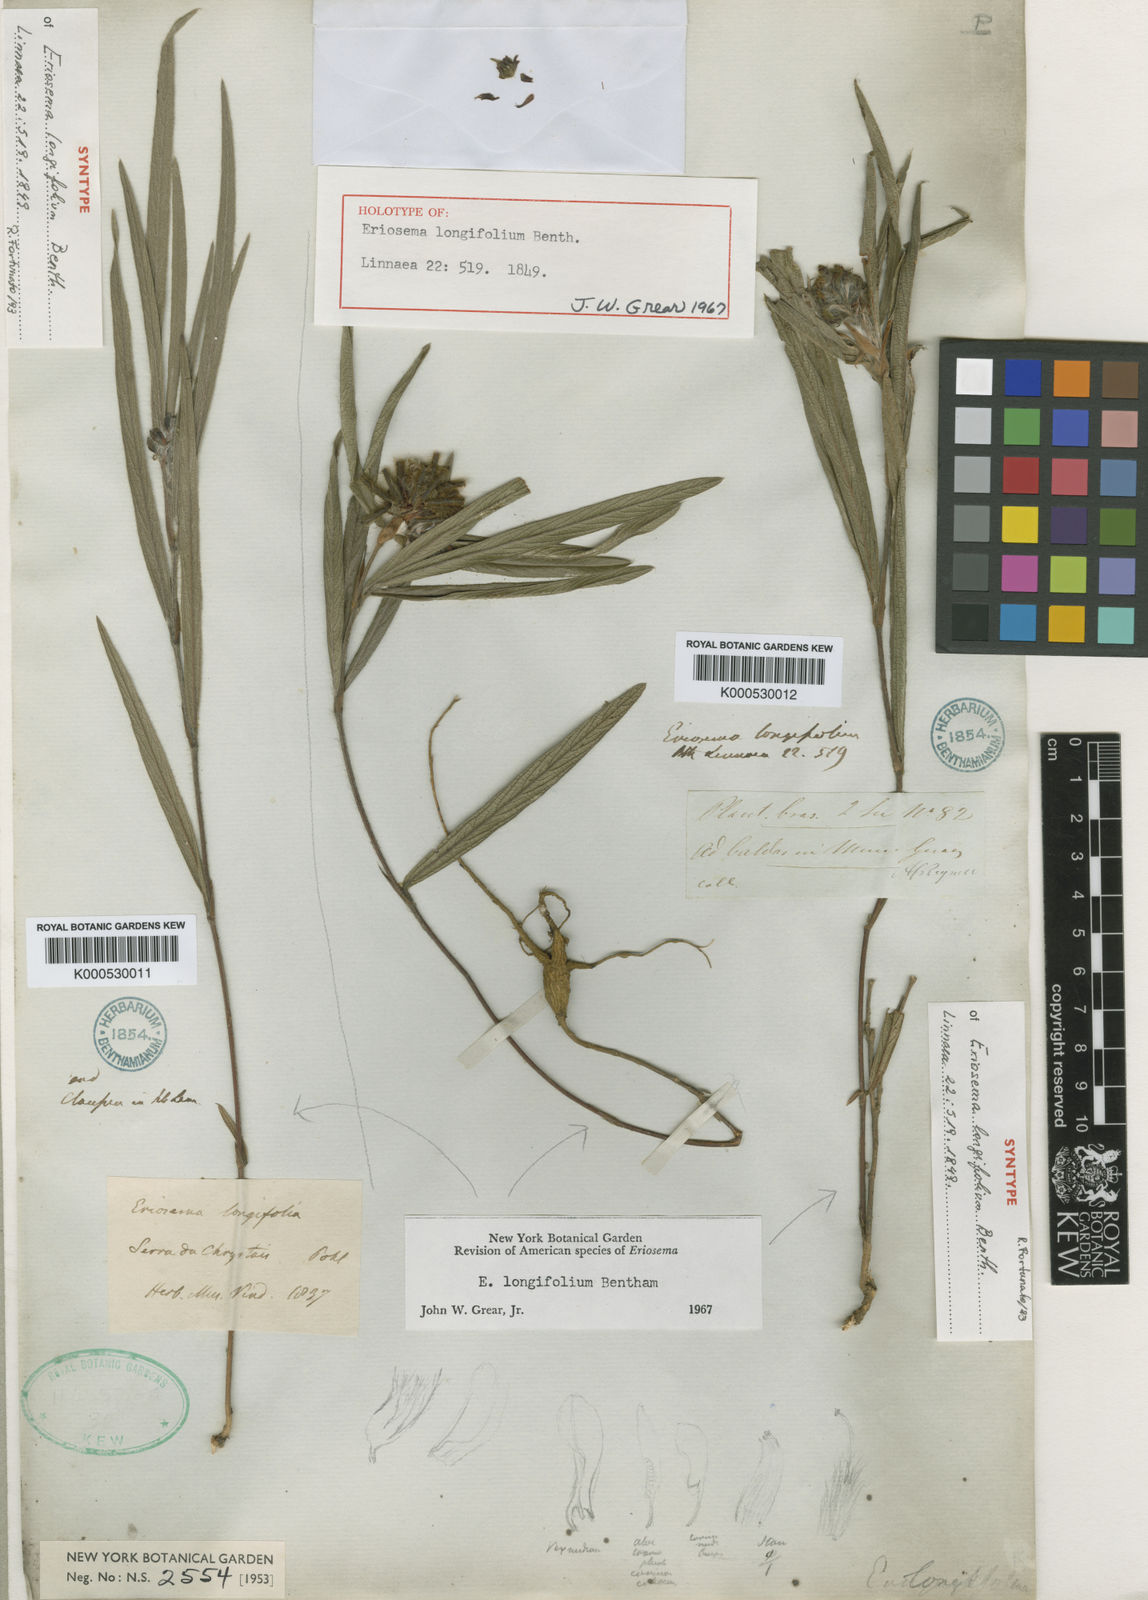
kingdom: Plantae
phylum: Tracheophyta
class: Magnoliopsida
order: Fabales
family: Fabaceae
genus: Eriosema
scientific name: Eriosema longifolium
